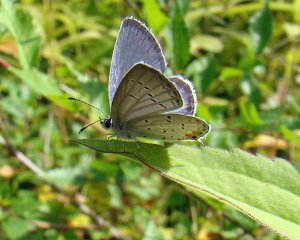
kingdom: Animalia
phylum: Arthropoda
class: Insecta
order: Lepidoptera
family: Lycaenidae
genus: Elkalyce
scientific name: Elkalyce comyntas
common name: Eastern Tailed-Blue
